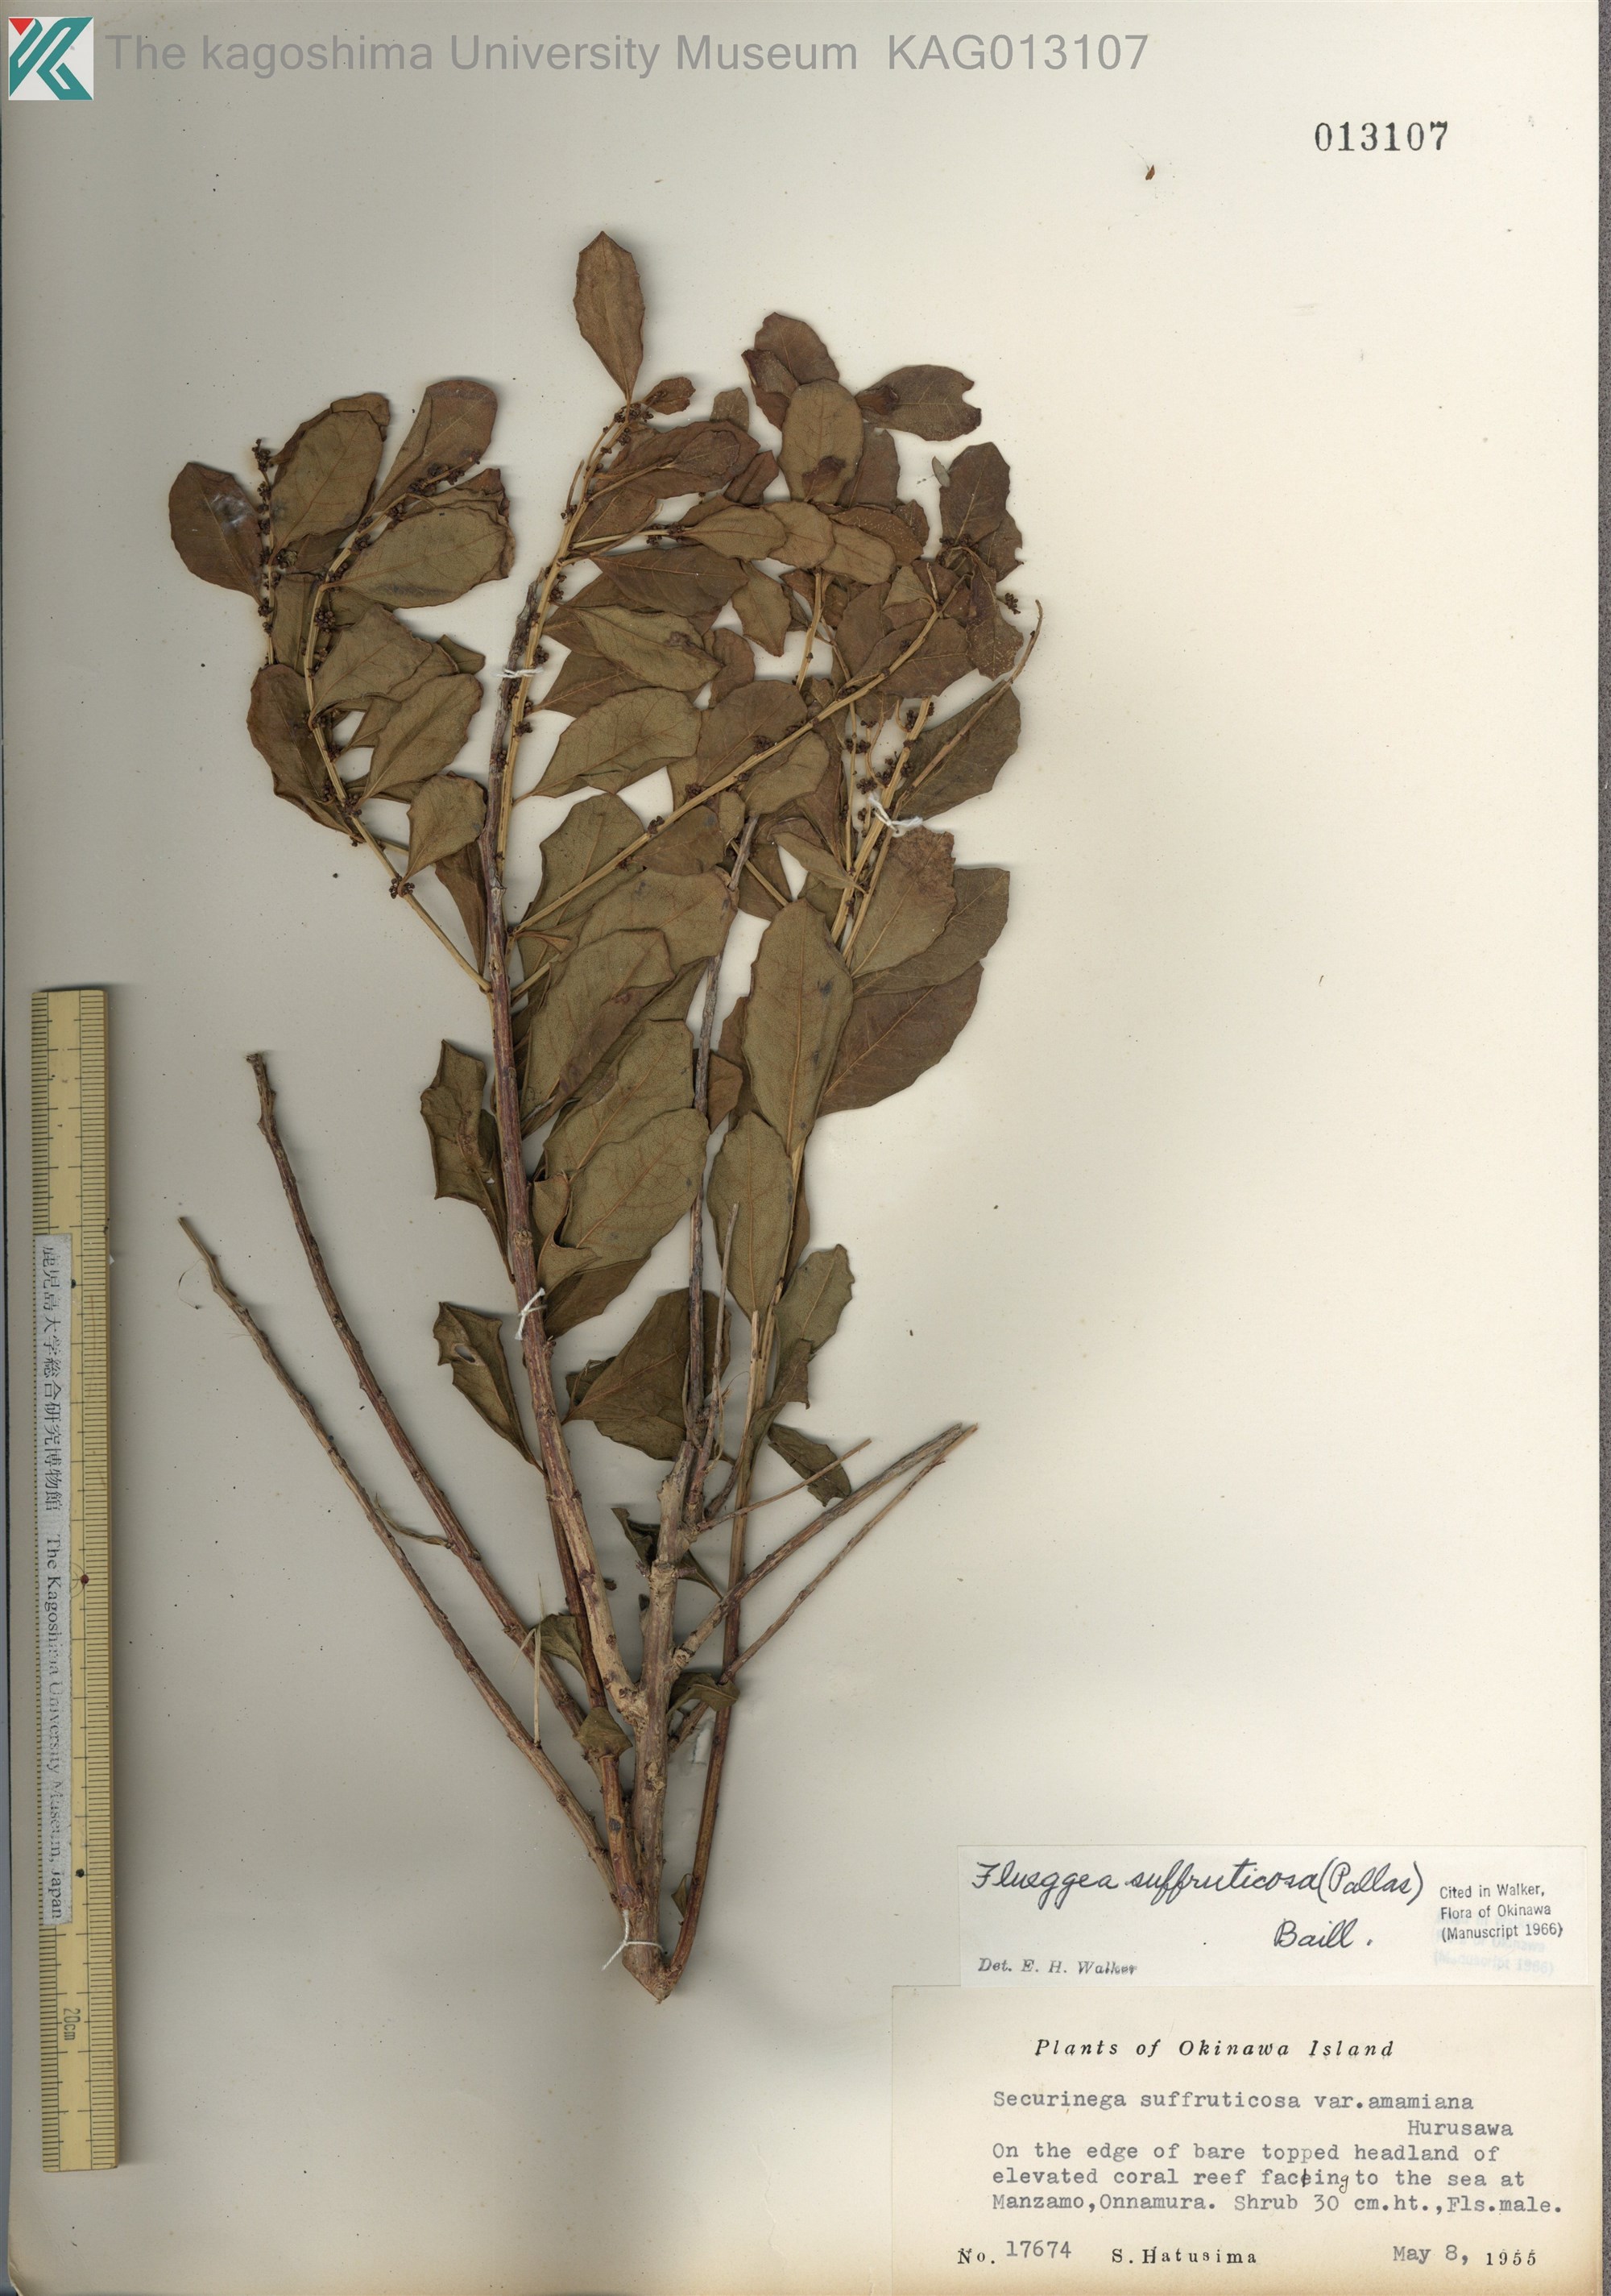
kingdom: Plantae
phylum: Tracheophyta
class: Magnoliopsida
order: Malpighiales
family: Phyllanthaceae
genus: Flueggea
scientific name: Flueggea suffruticosa
